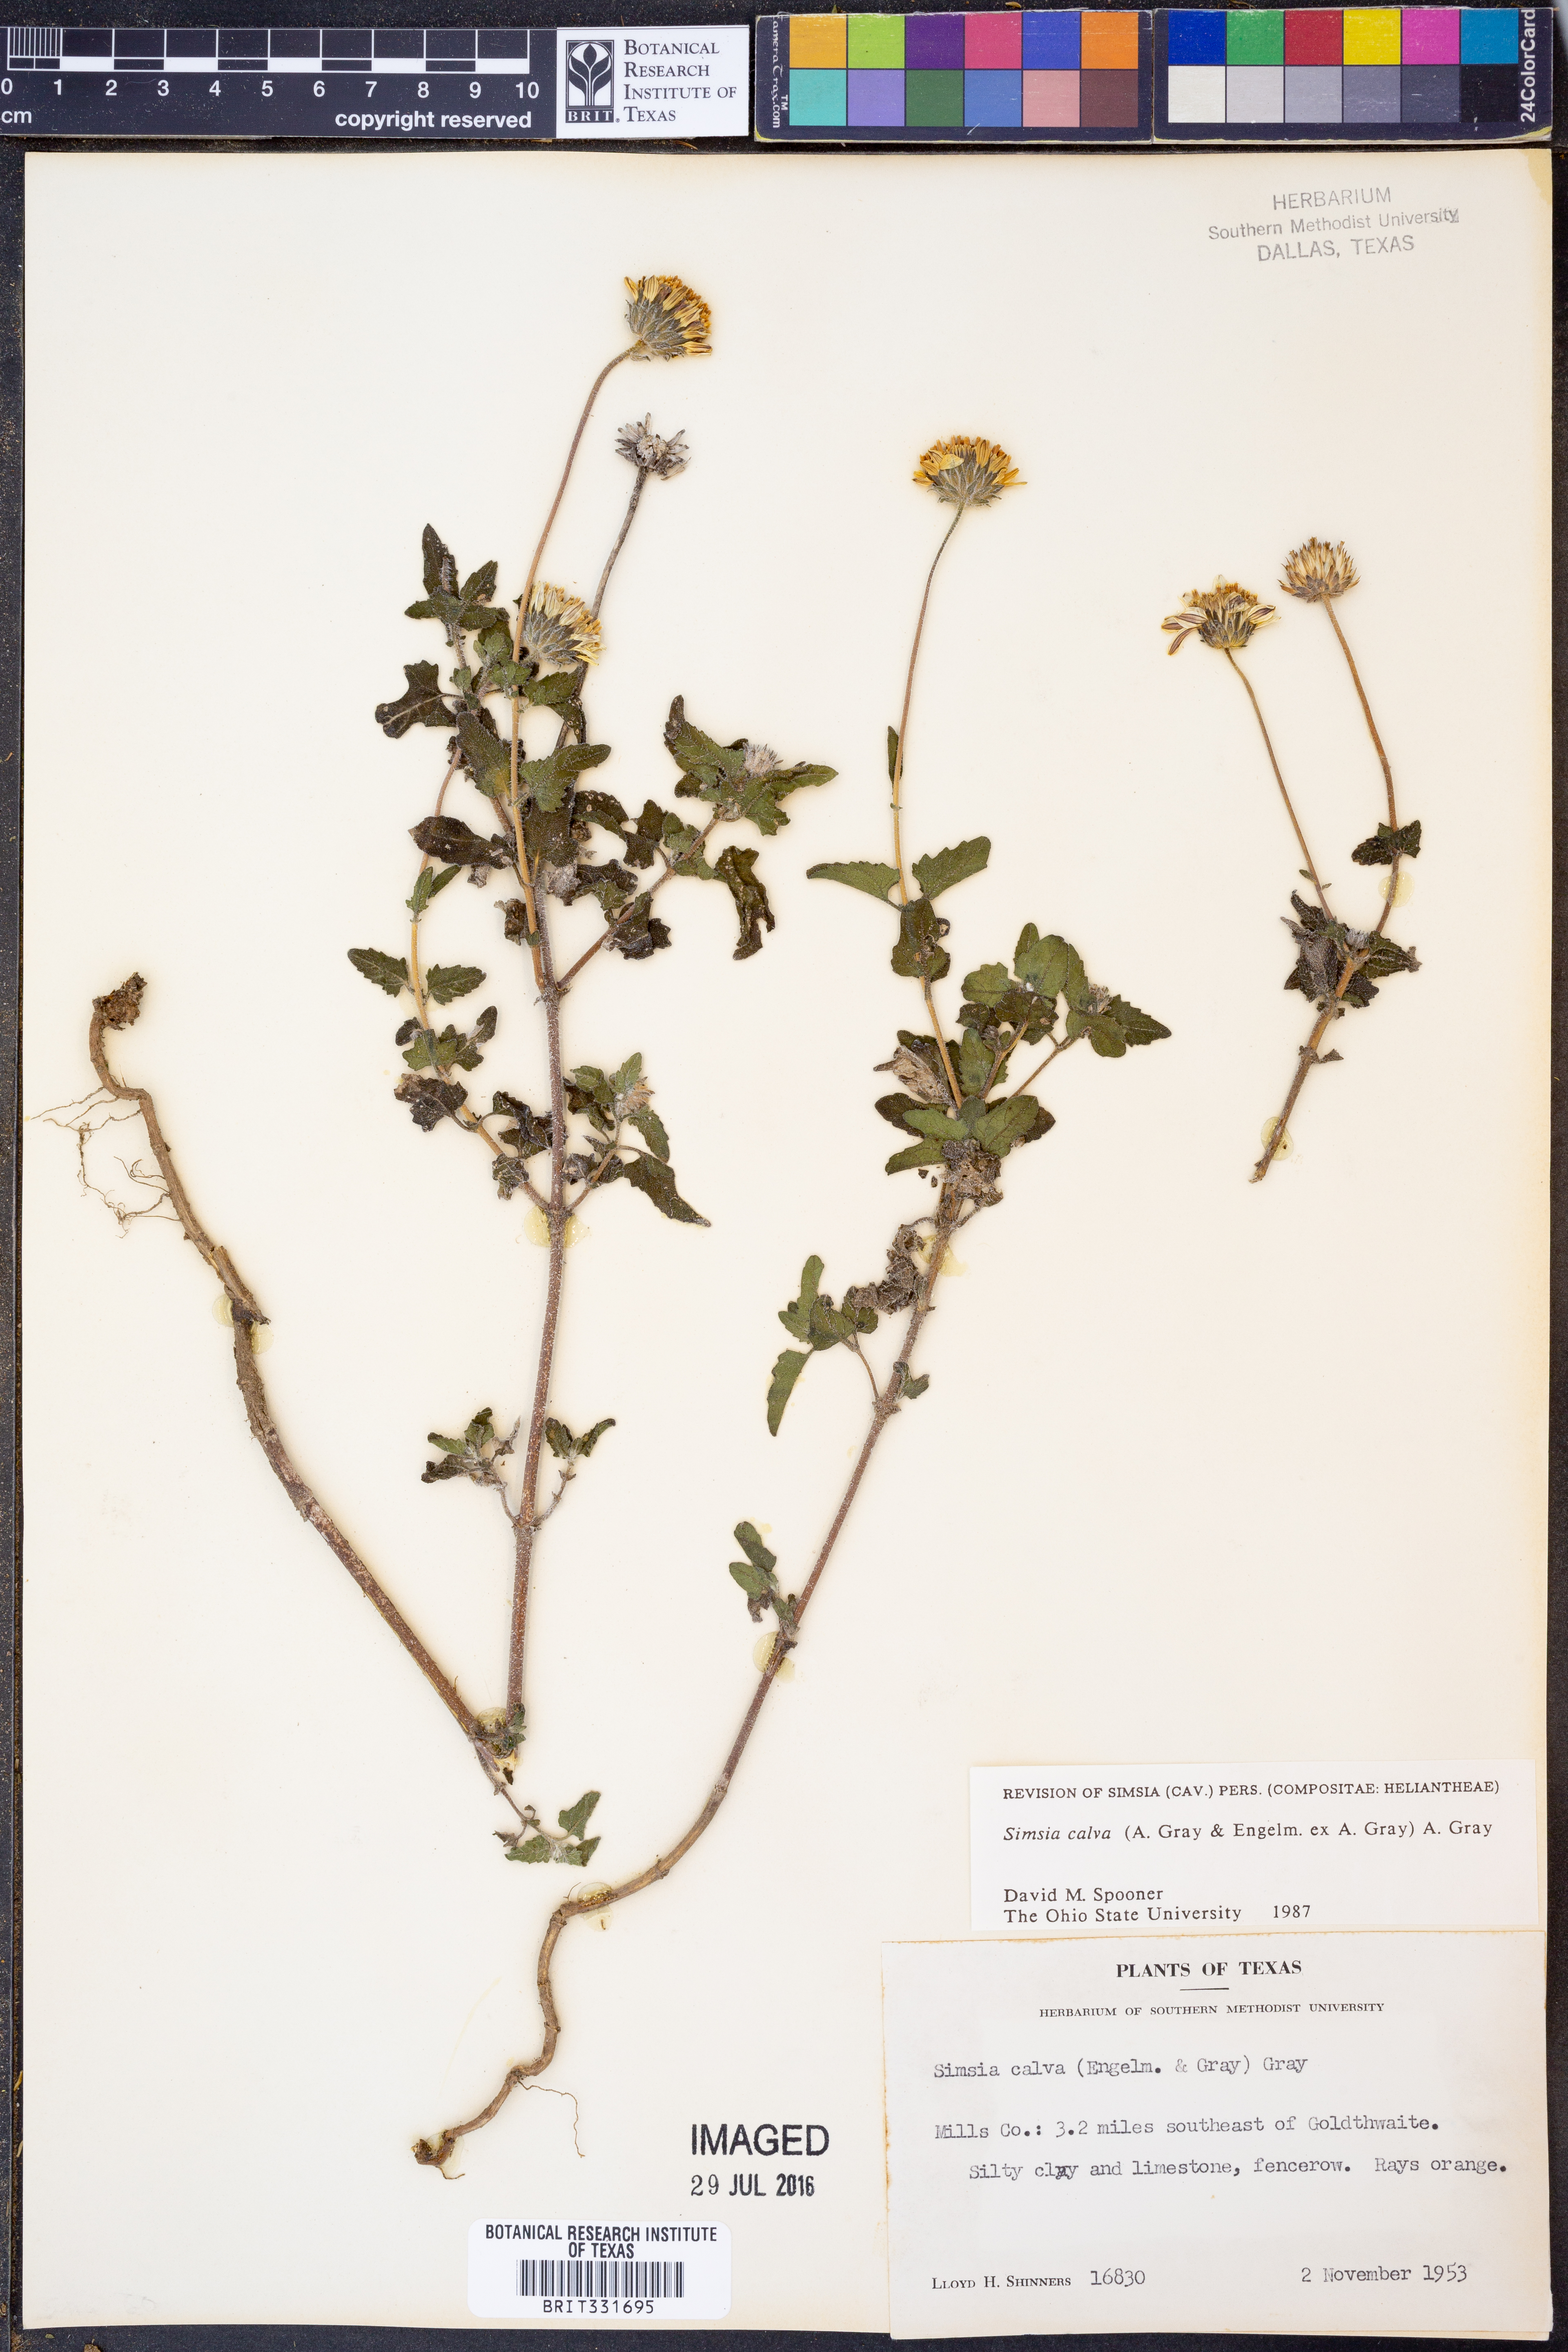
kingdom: Plantae
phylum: Tracheophyta
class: Magnoliopsida
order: Asterales
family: Asteraceae
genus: Simsia
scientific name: Simsia calva
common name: Awnless bush-sunflower
